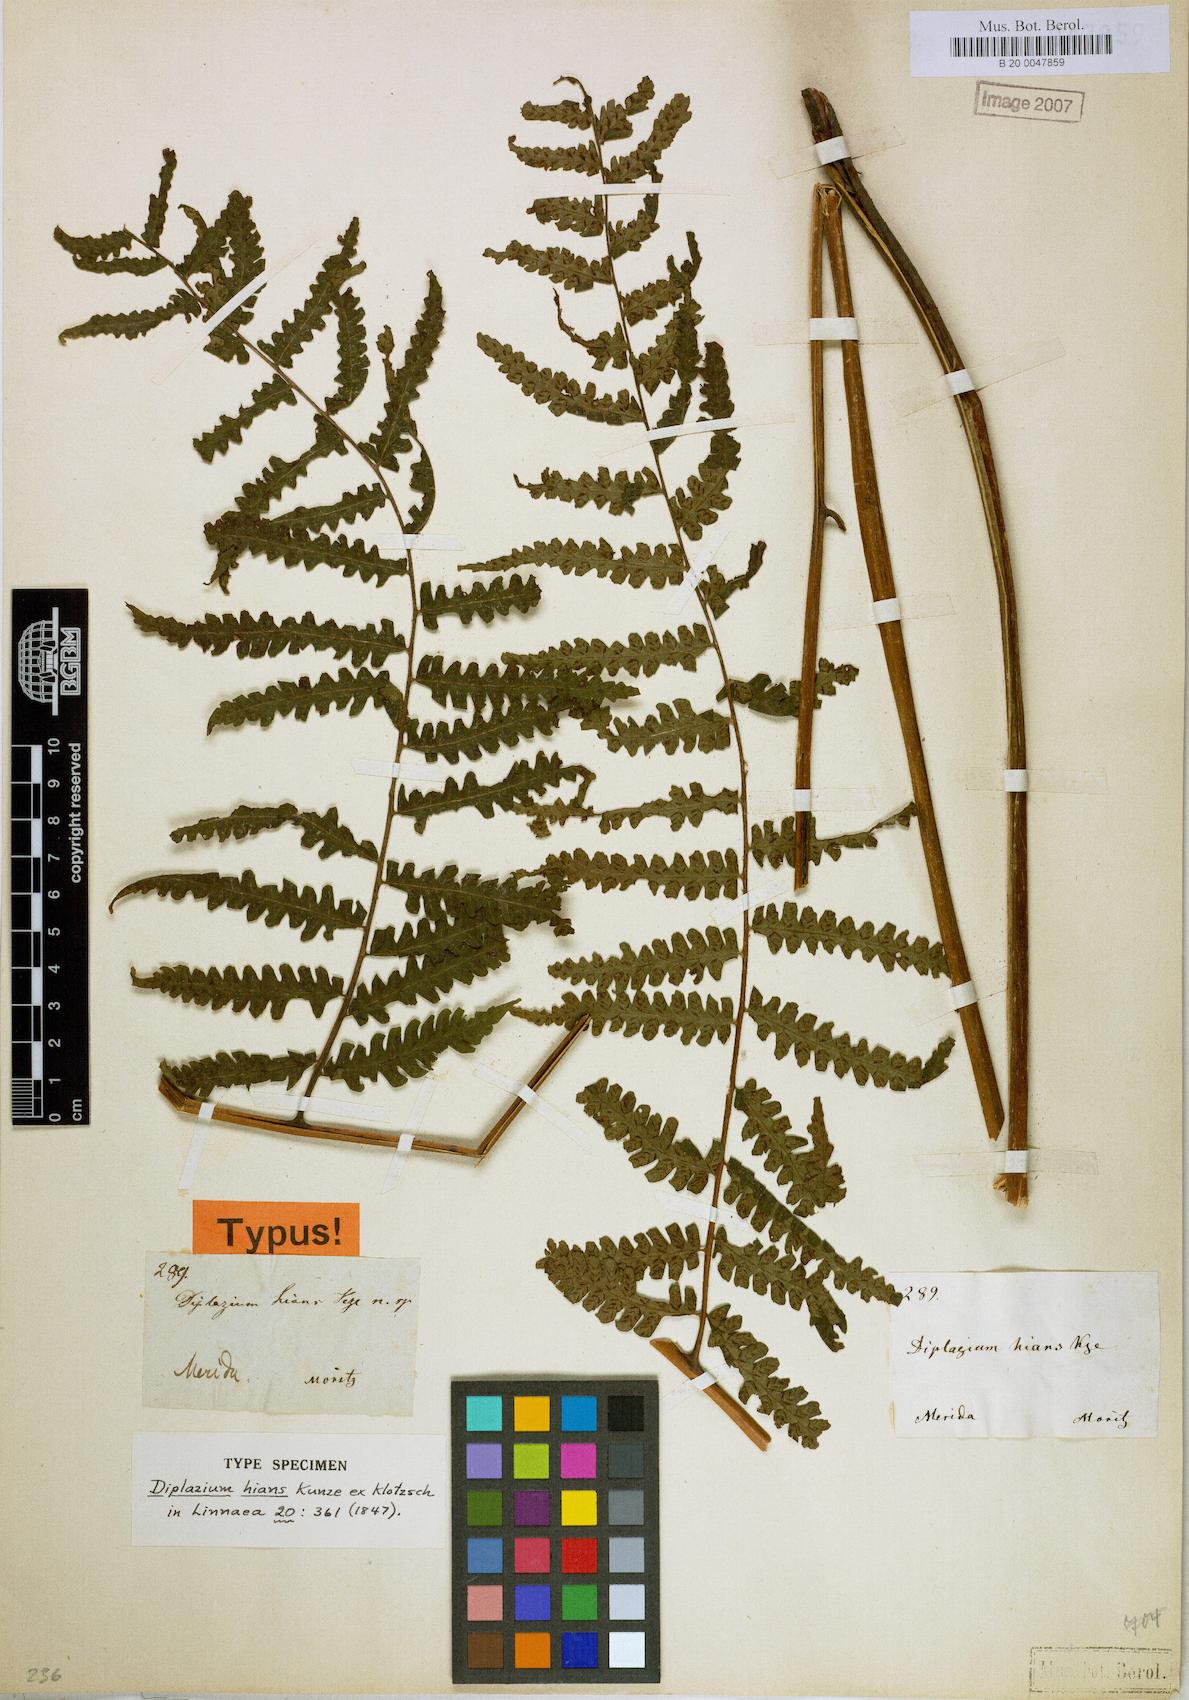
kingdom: Plantae
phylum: Tracheophyta
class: Polypodiopsida
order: Polypodiales
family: Athyriaceae
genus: Diplazium
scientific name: Diplazium hians
